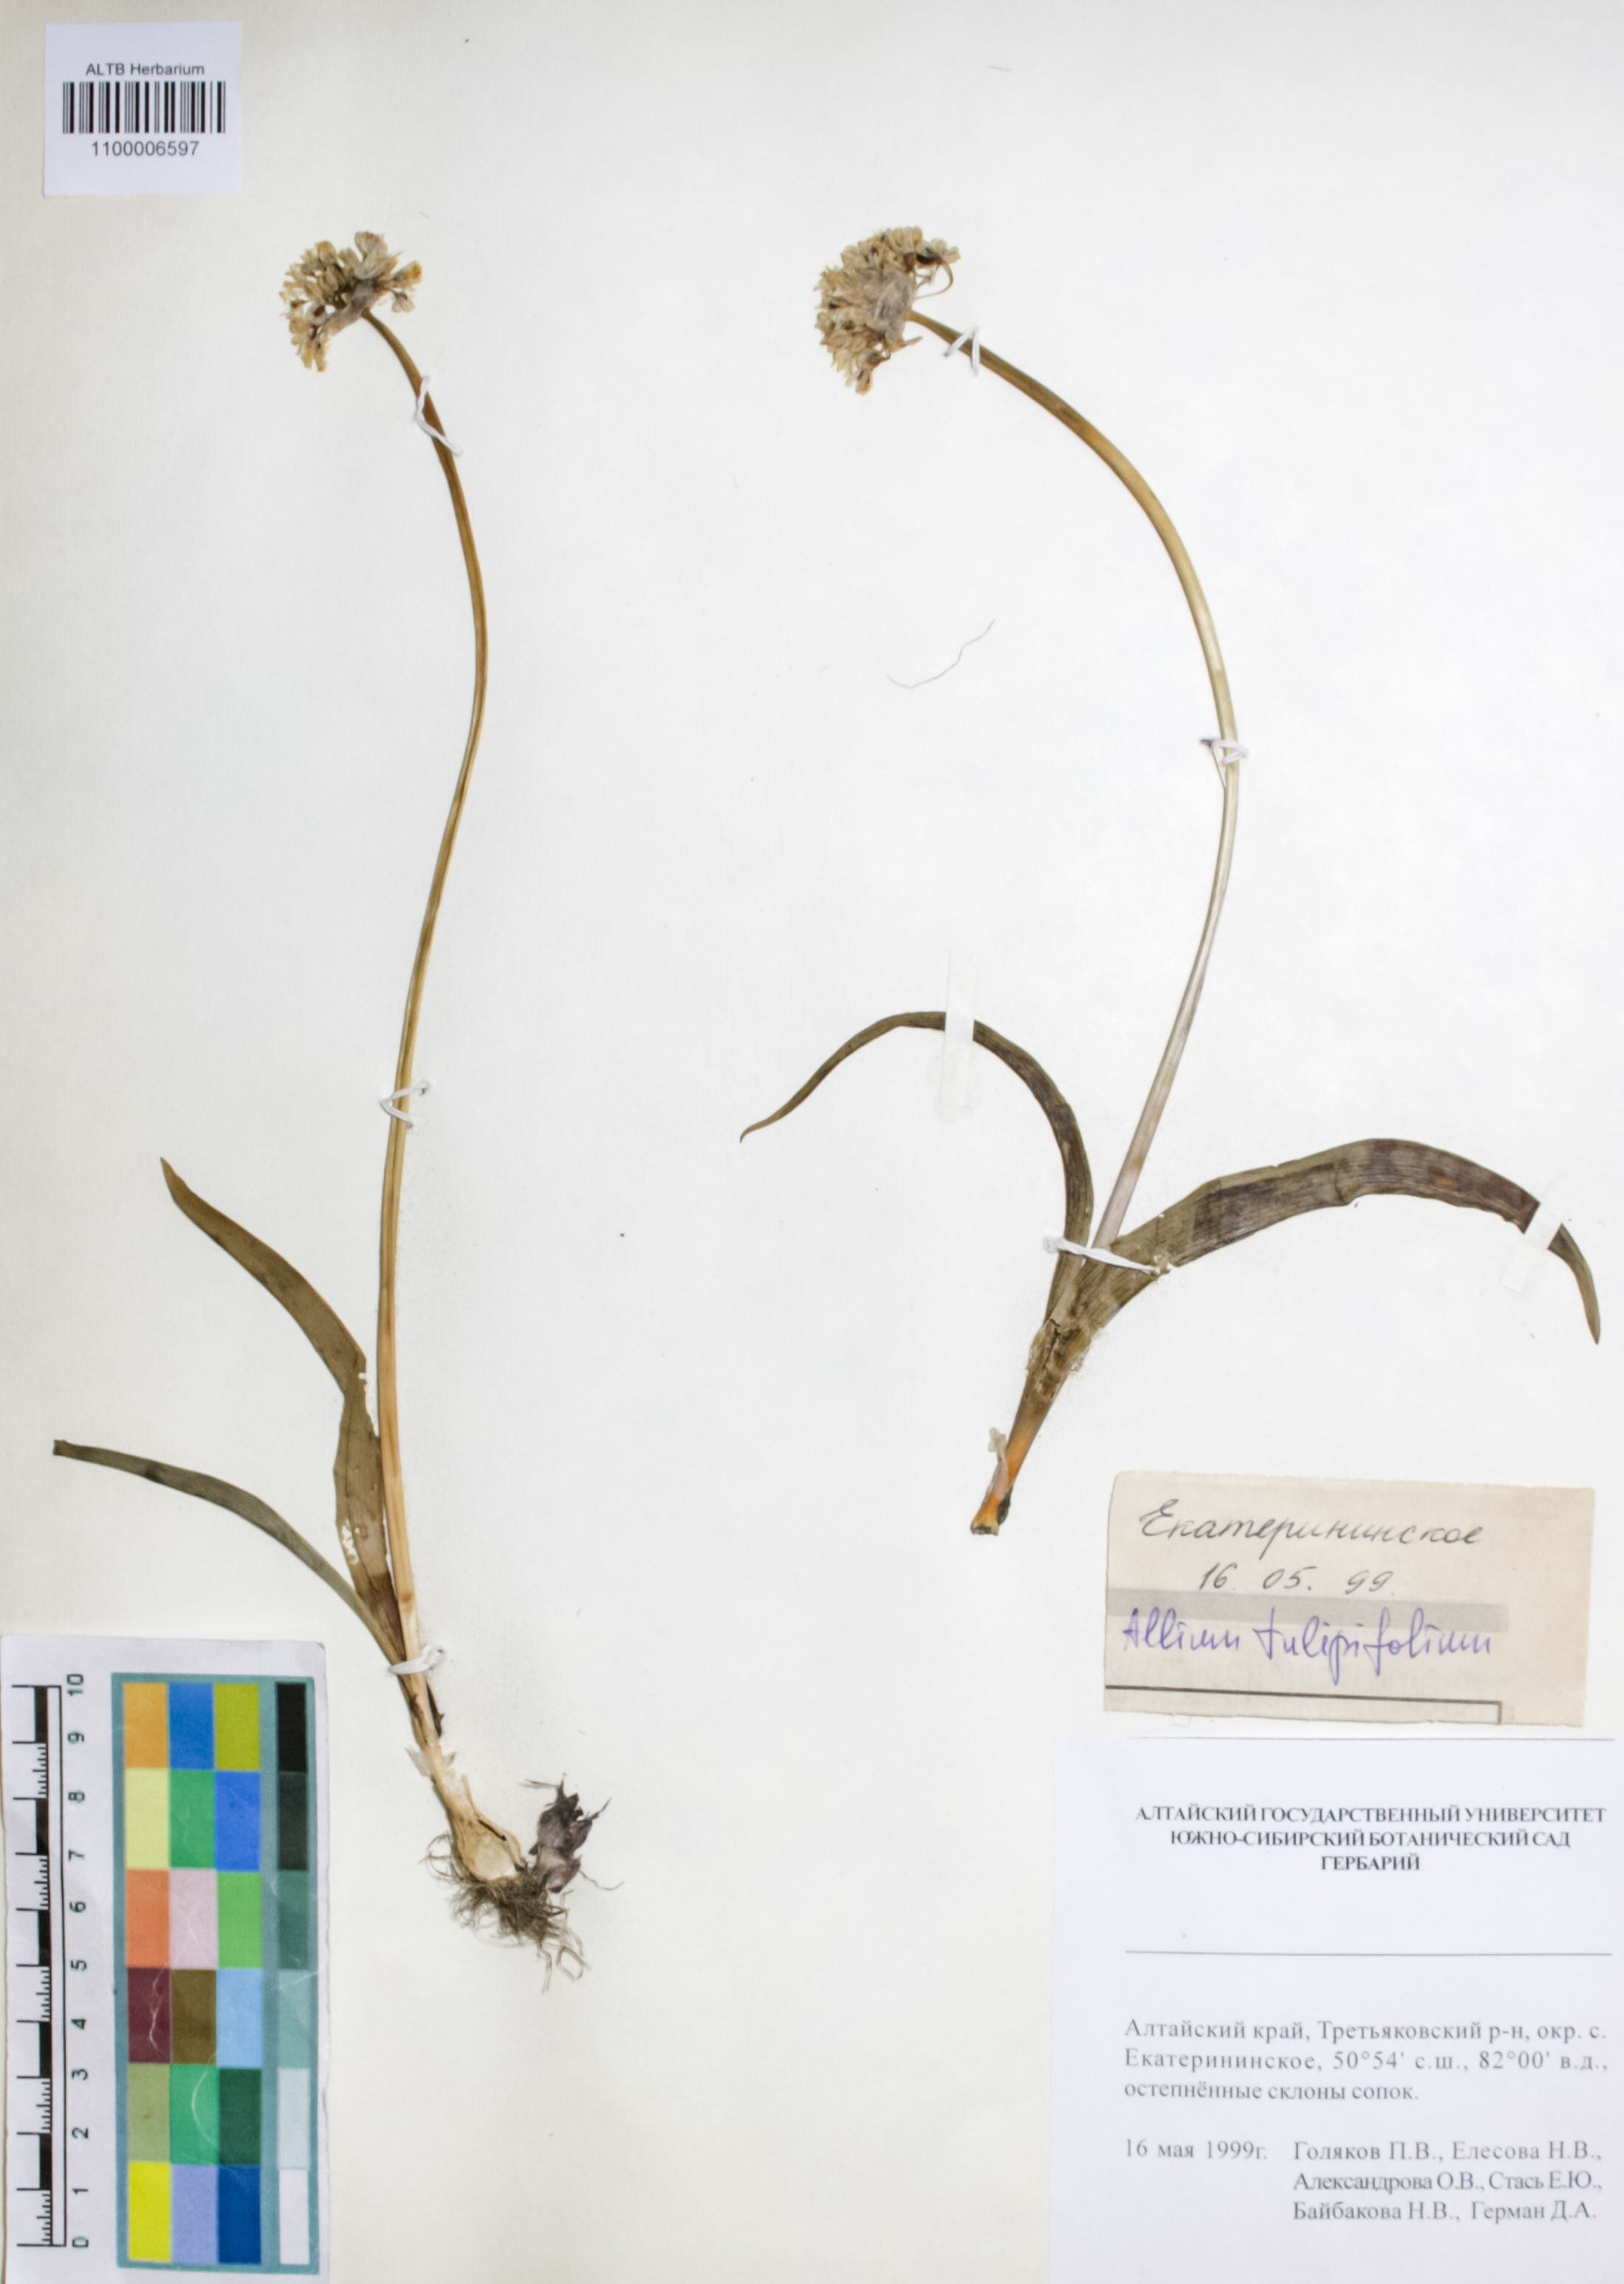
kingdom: Plantae
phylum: Tracheophyta
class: Liliopsida
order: Asparagales
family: Amaryllidaceae
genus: Allium
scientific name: Allium tulipifolium
